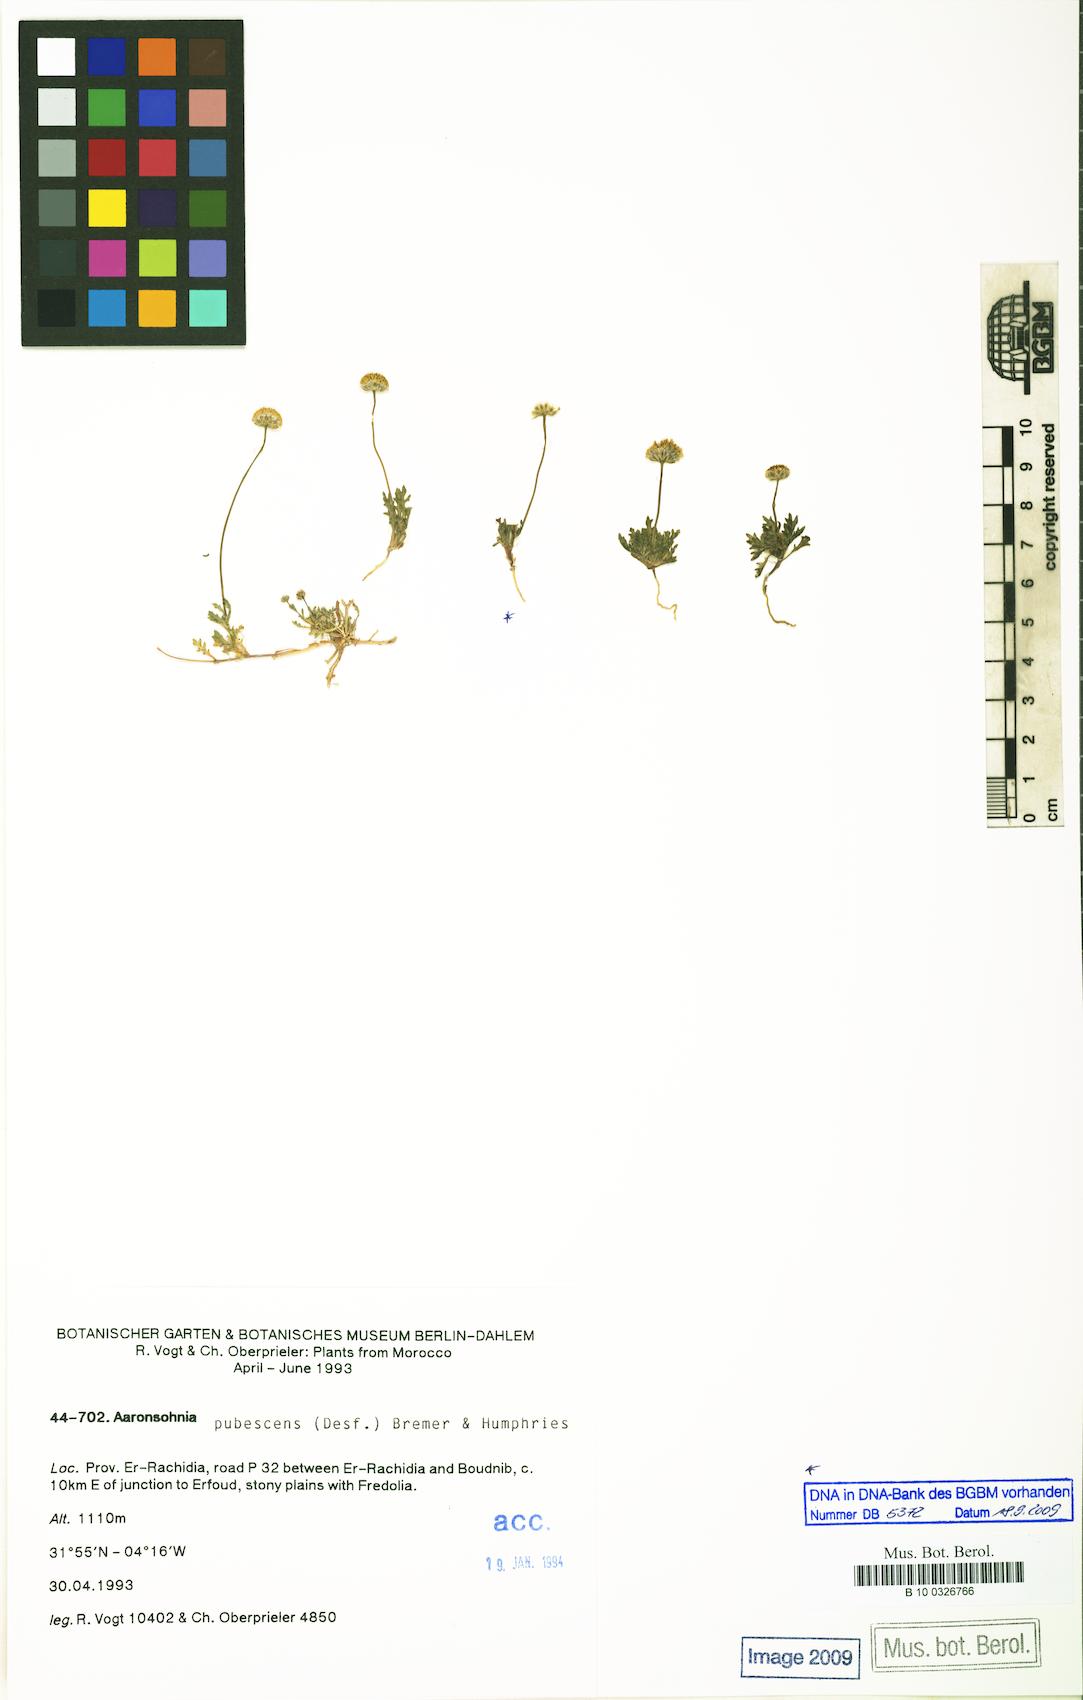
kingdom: Plantae
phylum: Tracheophyta
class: Magnoliopsida
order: Asterales
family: Asteraceae
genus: Otoglyphis
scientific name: Otoglyphis pubescens
